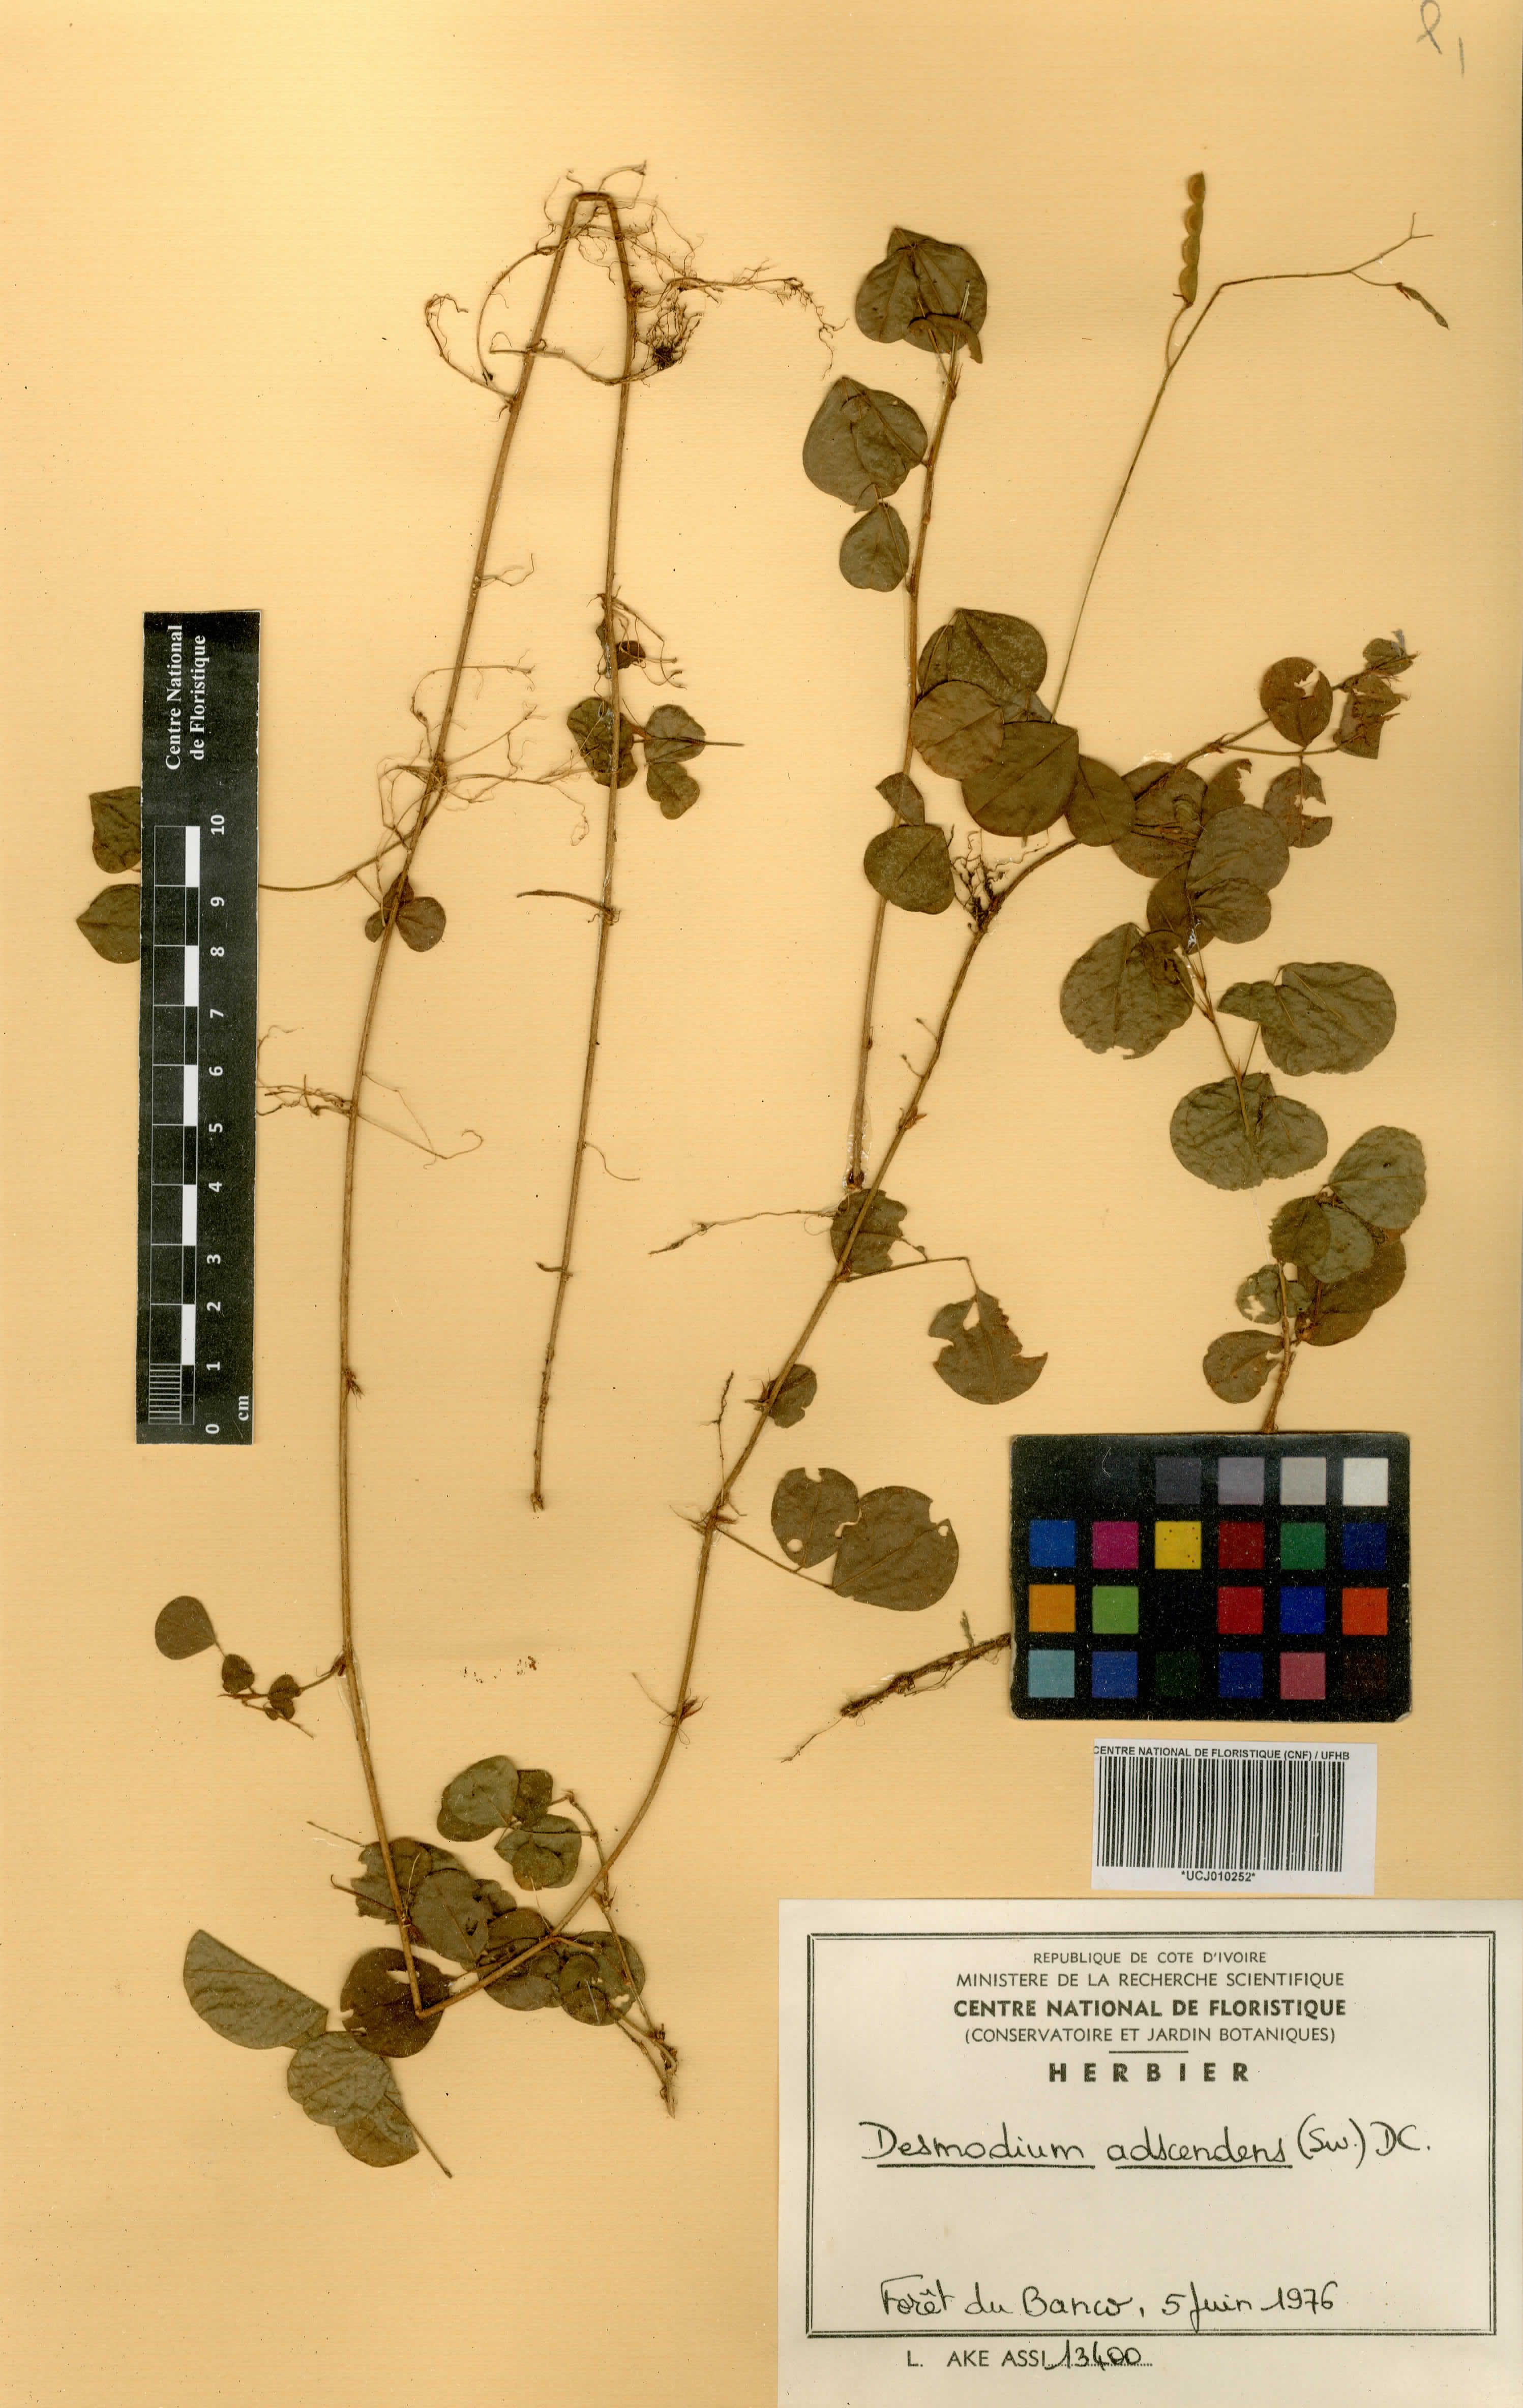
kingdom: Plantae
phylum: Tracheophyta
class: Magnoliopsida
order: Fabales
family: Fabaceae
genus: Grona
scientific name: Grona adscendens
